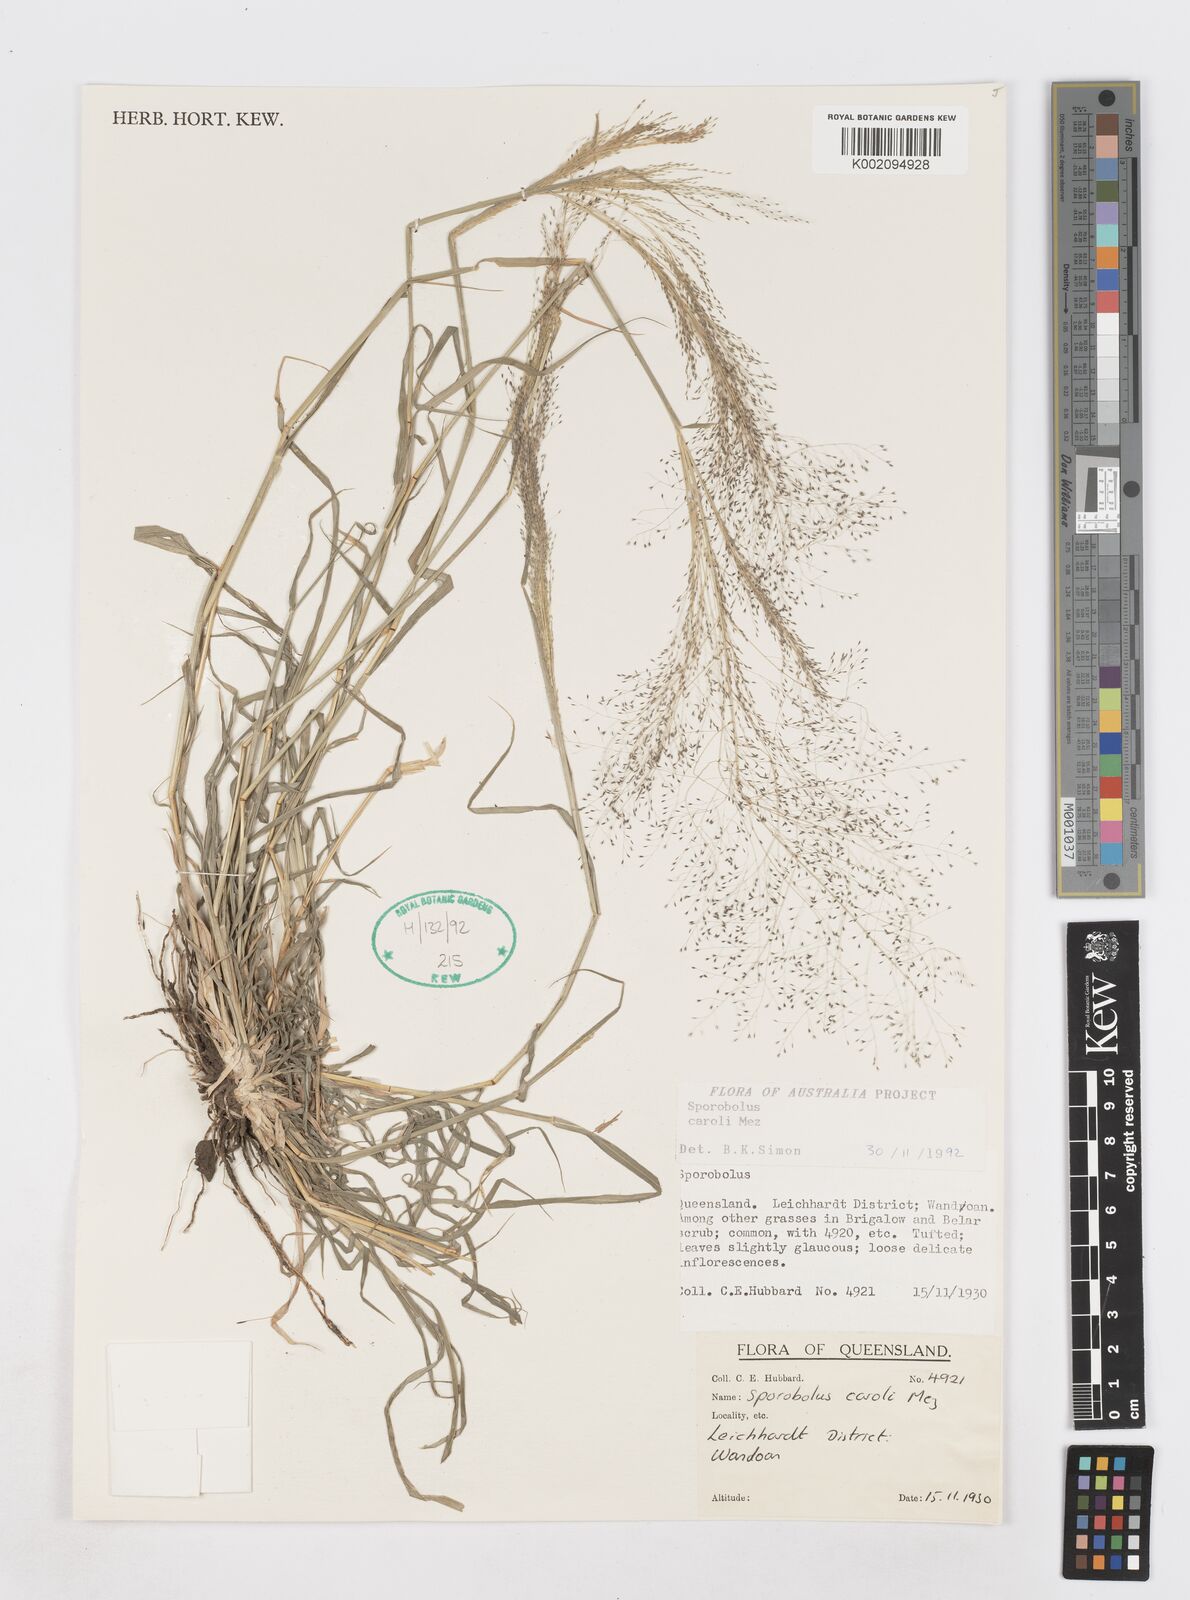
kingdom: Plantae
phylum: Tracheophyta
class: Liliopsida
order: Poales
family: Poaceae
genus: Sporobolus
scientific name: Sporobolus caroli
